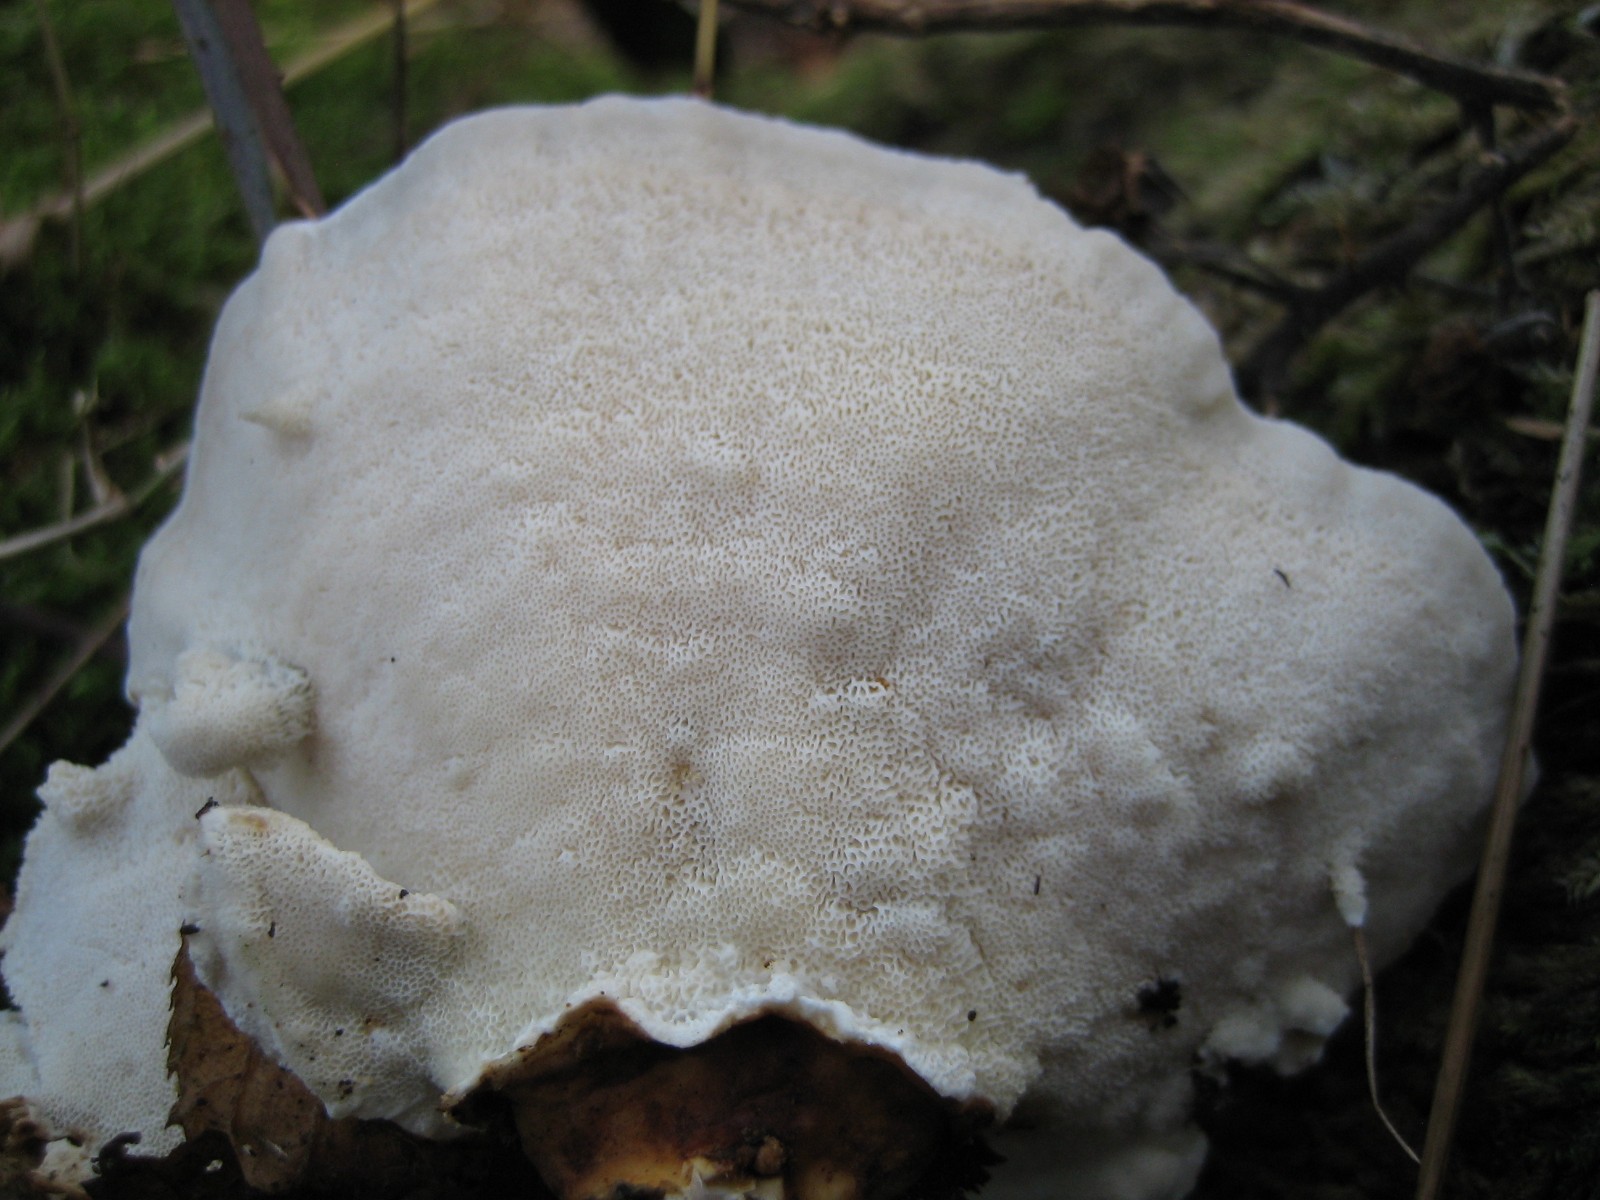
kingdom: Fungi
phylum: Basidiomycota
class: Agaricomycetes
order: Polyporales
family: Polyporaceae
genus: Trametes
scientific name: Trametes versicolor
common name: broget læderporesvamp
